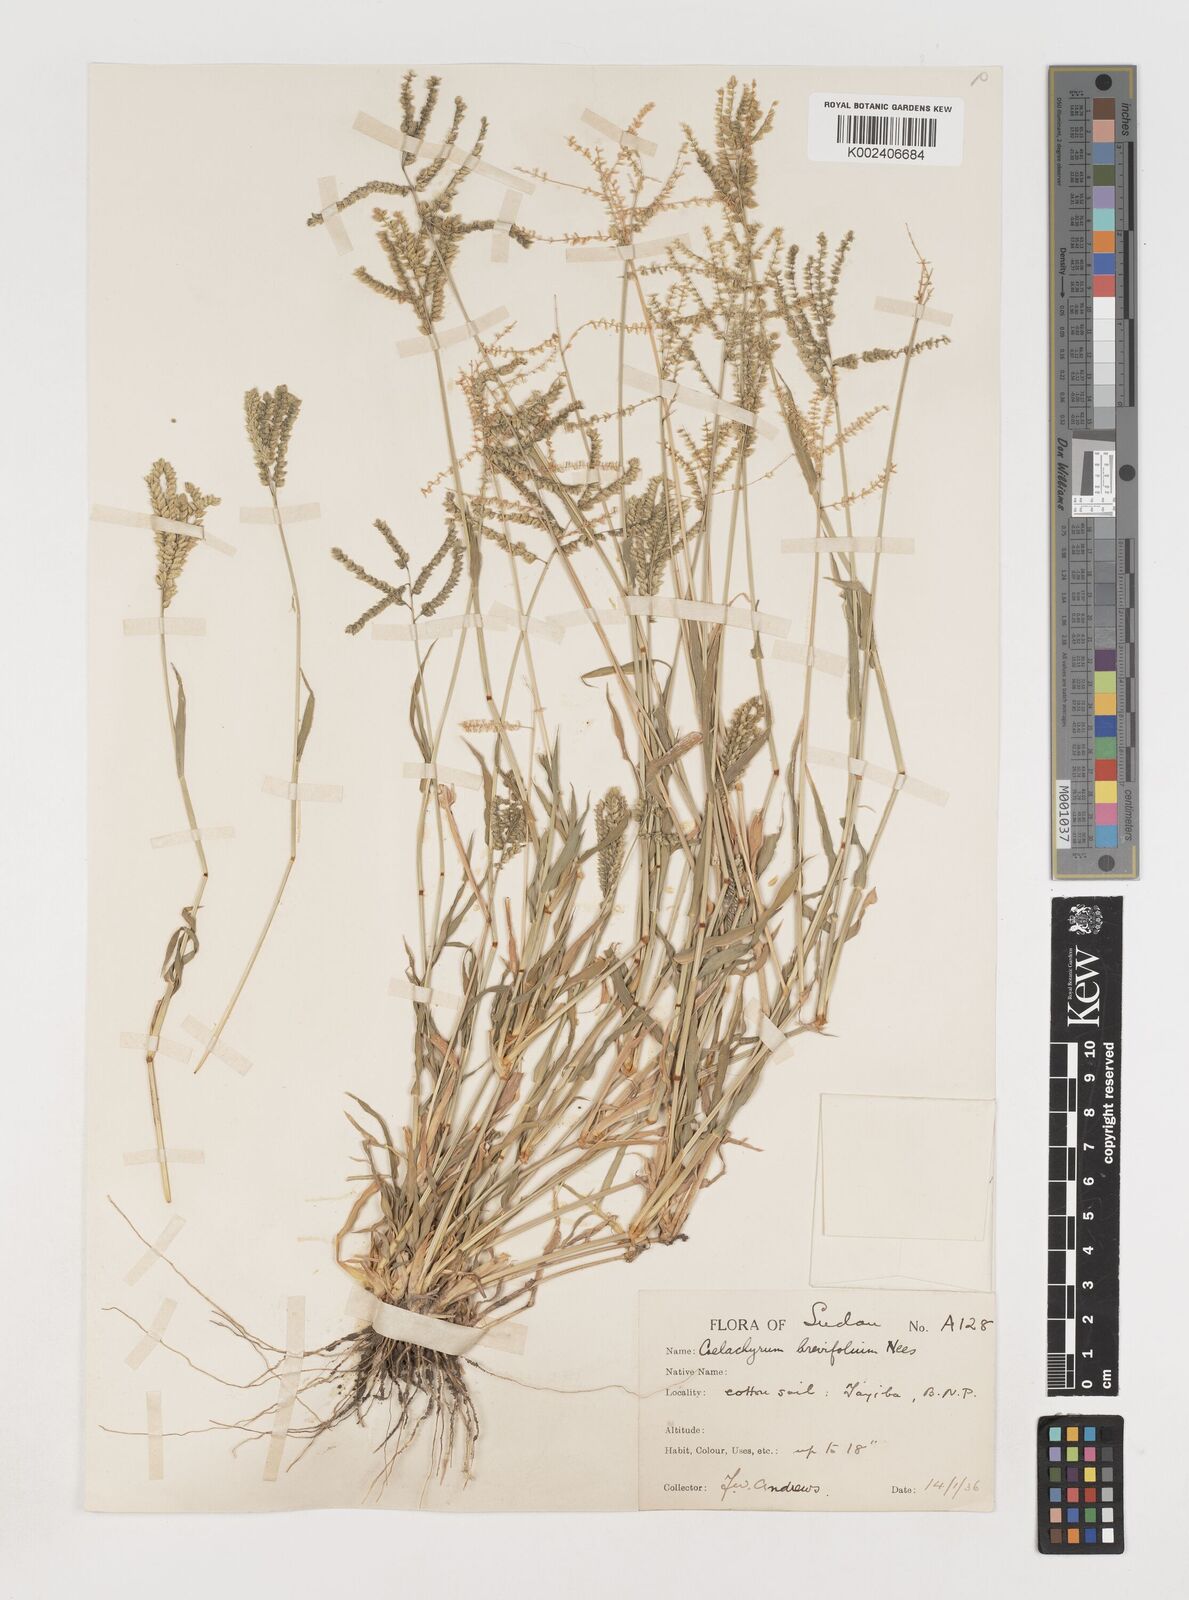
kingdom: Plantae
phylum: Tracheophyta
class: Liliopsida
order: Poales
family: Poaceae
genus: Coelachyrum
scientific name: Coelachyrum brevifolium
